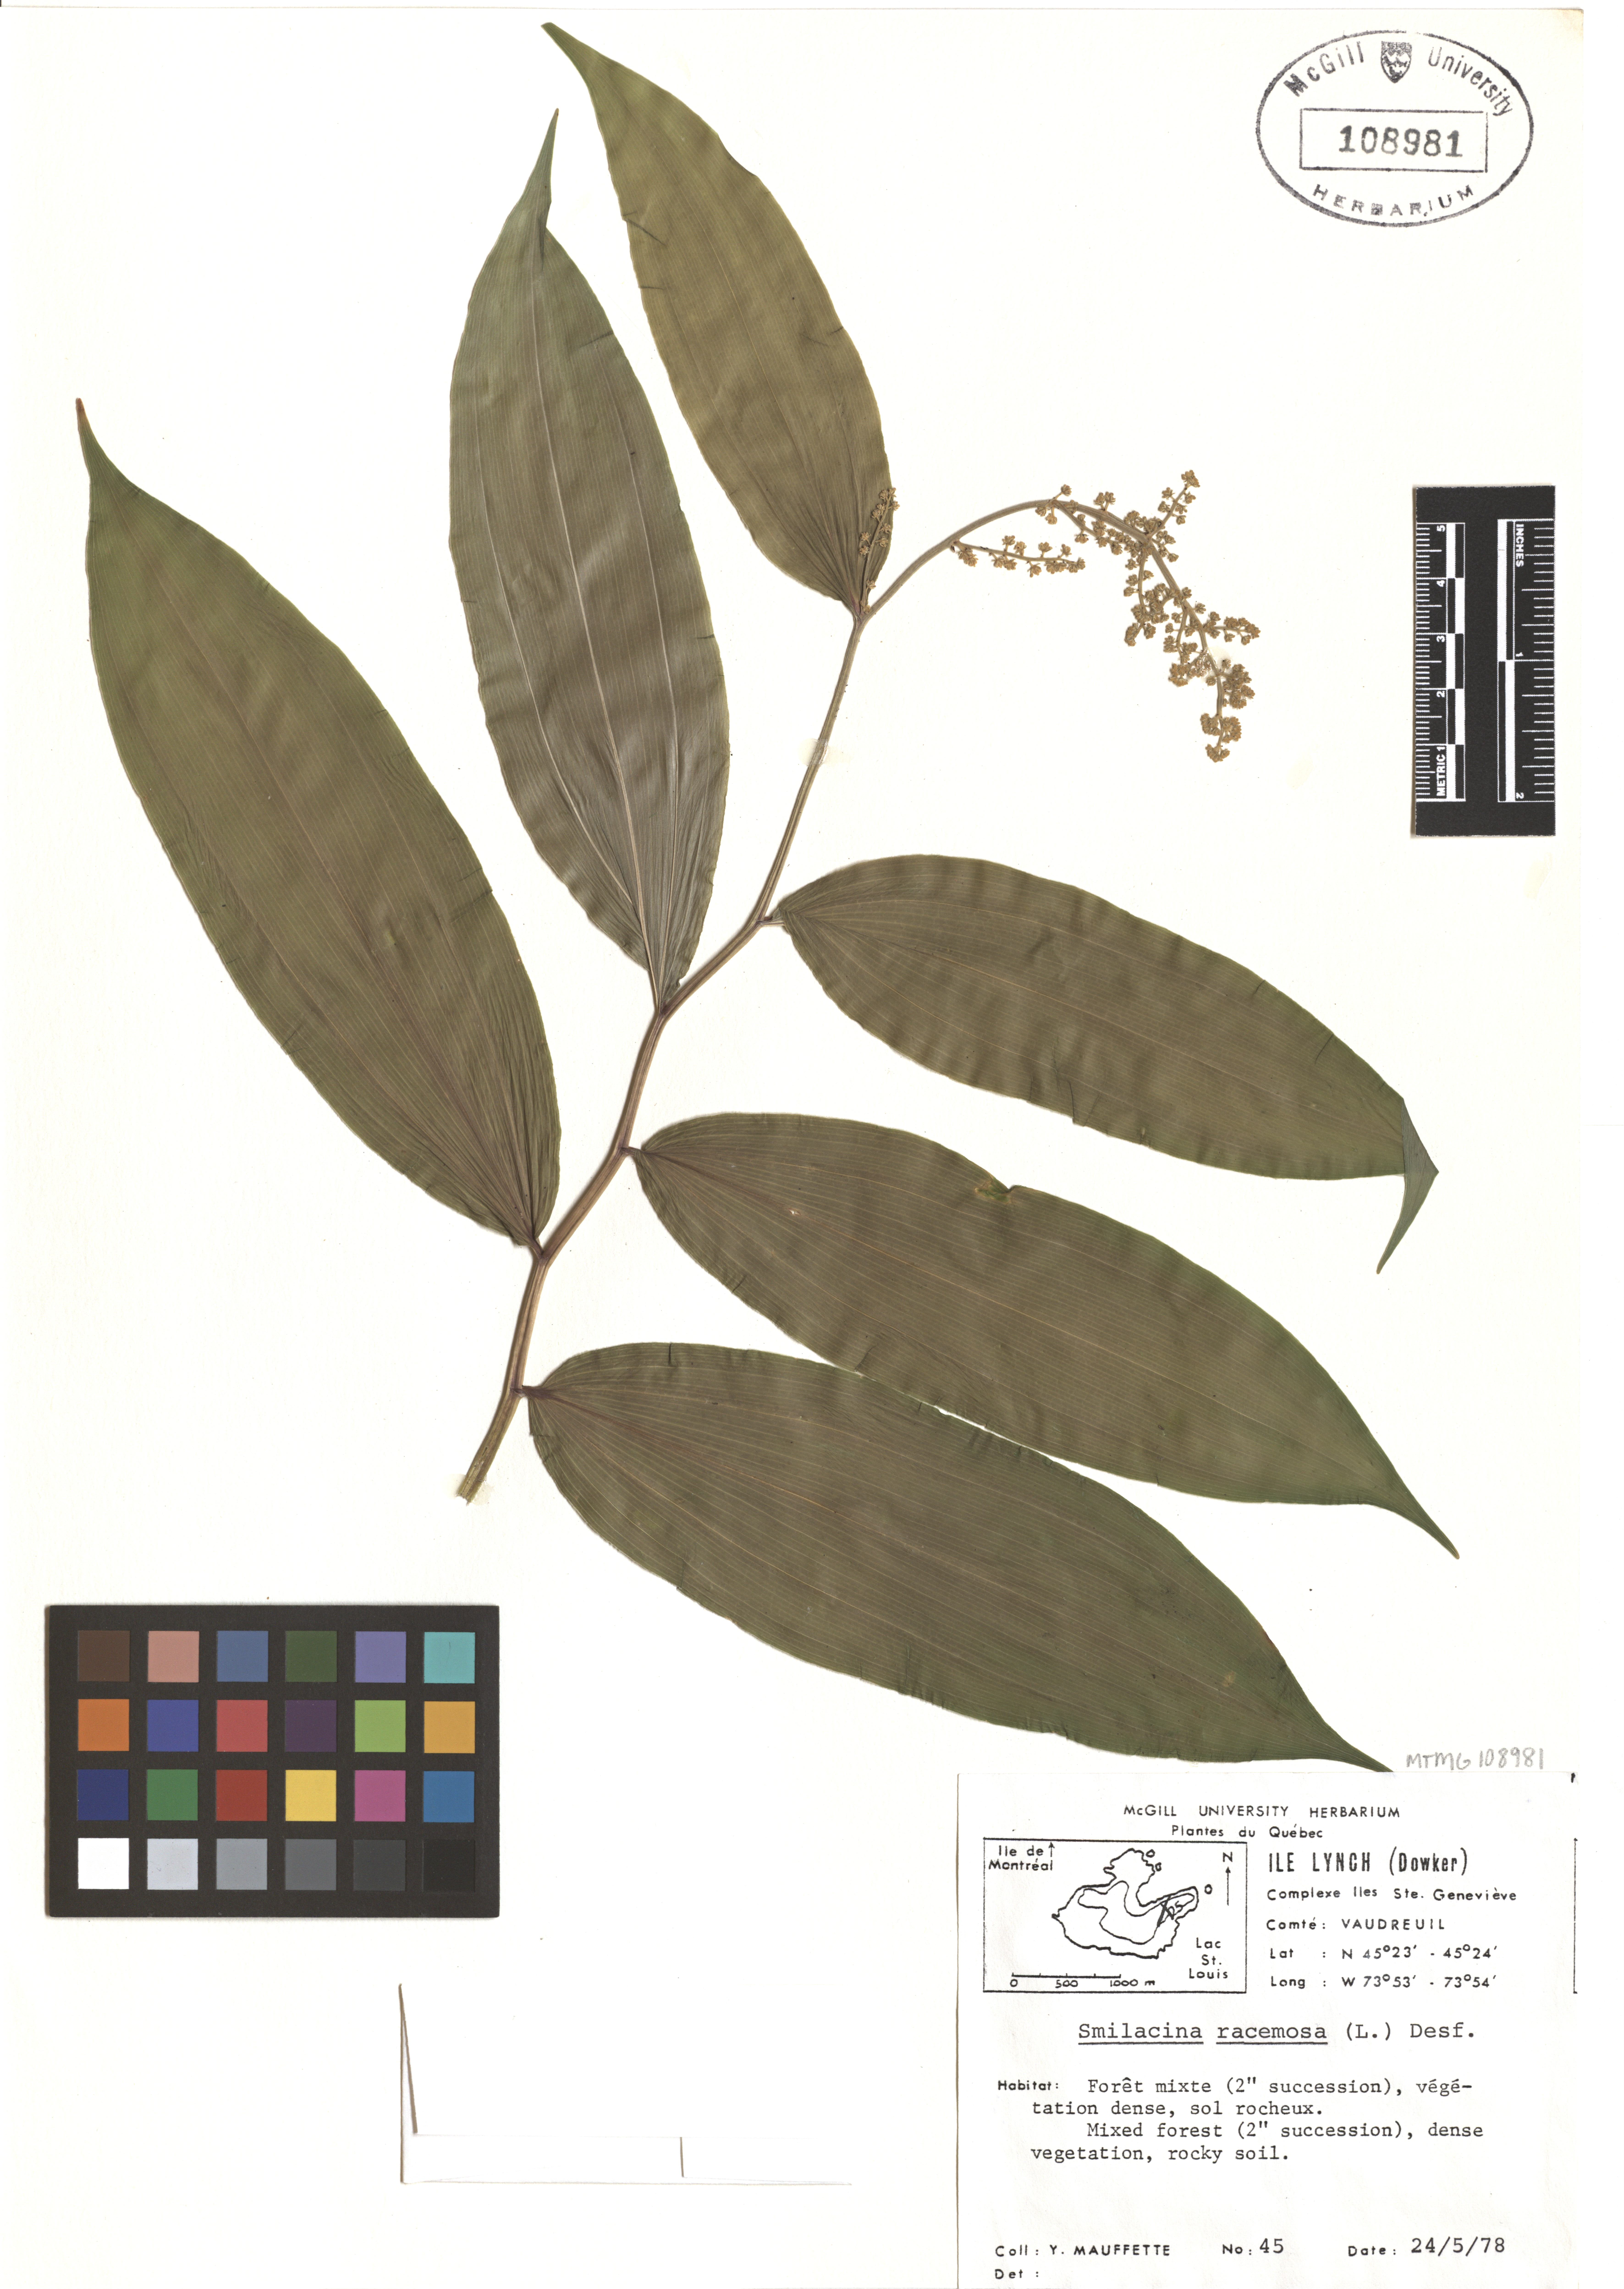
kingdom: Plantae
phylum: Tracheophyta
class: Liliopsida
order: Asparagales
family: Asparagaceae
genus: Maianthemum
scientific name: Maianthemum racemosum
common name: False spikenard
